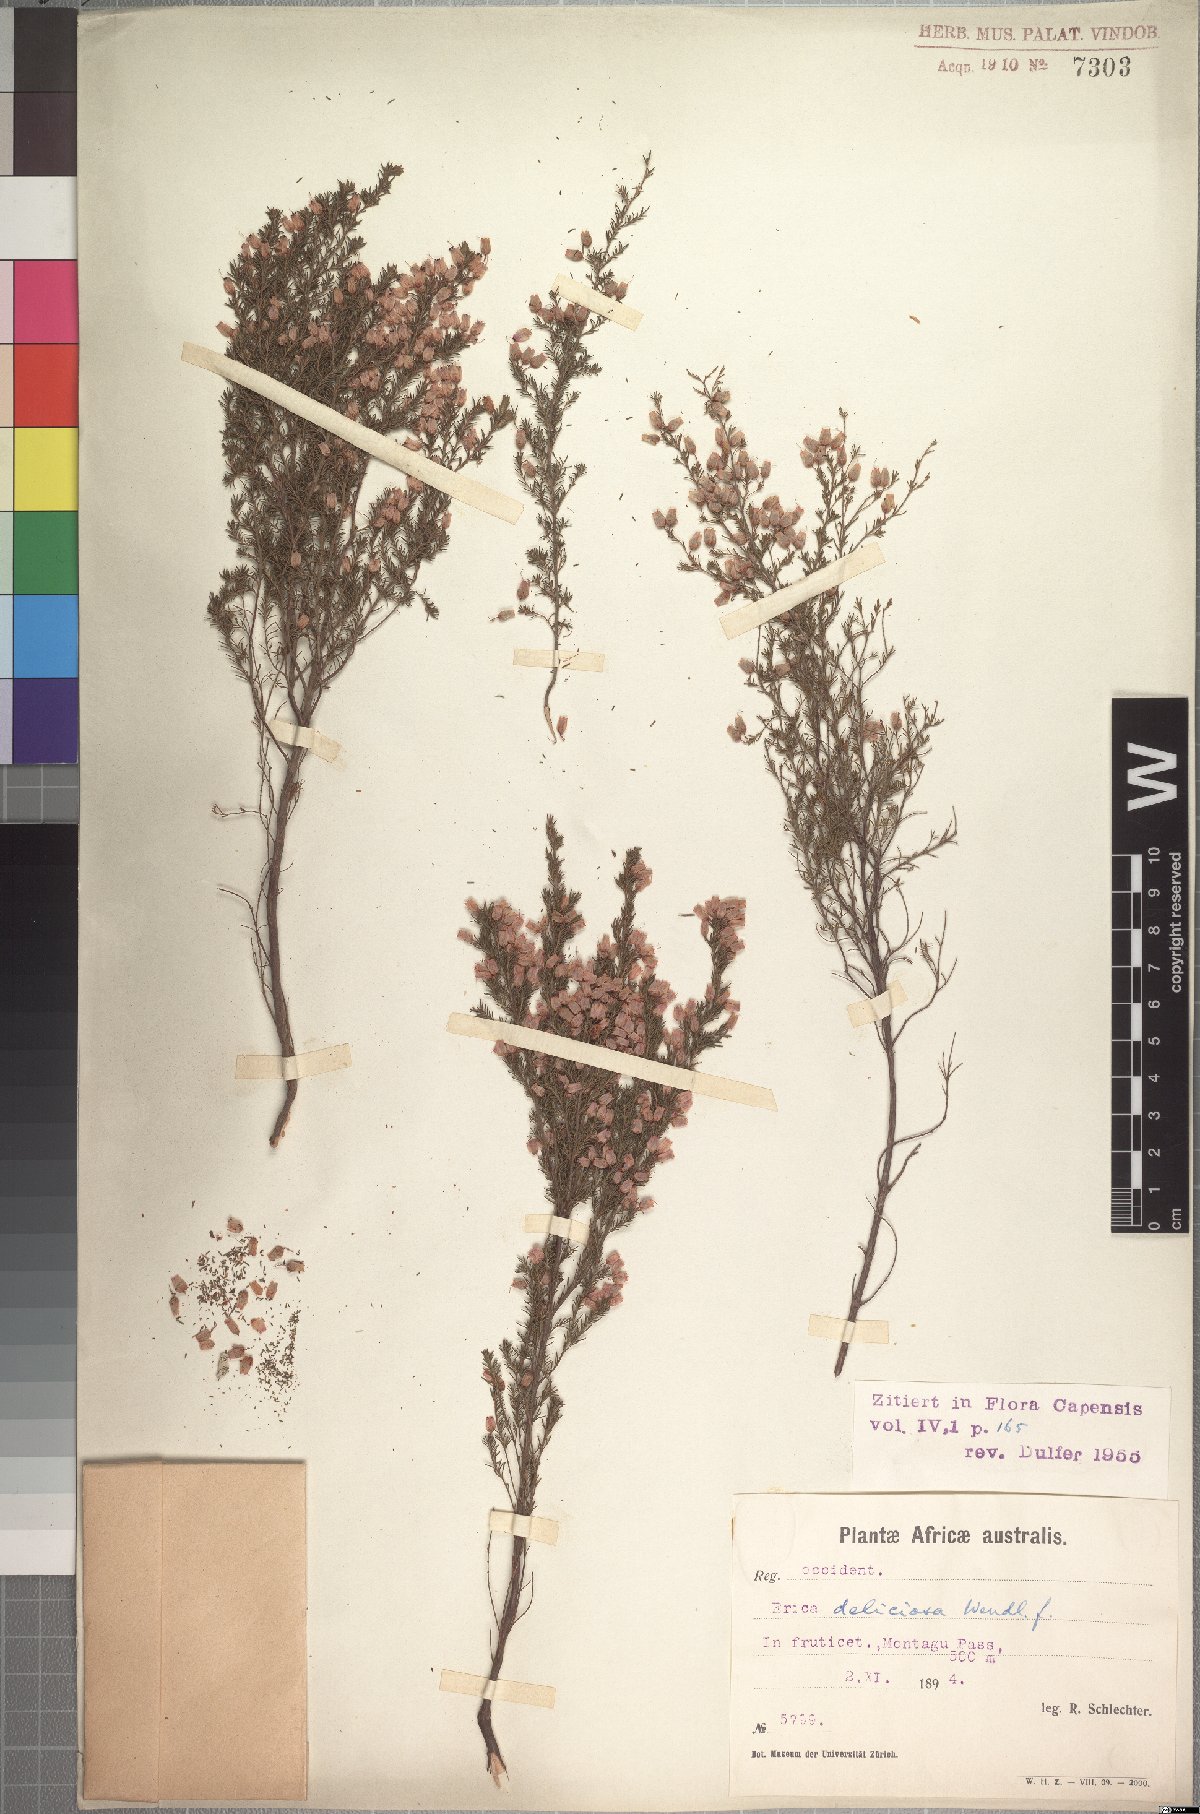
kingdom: Plantae
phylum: Tracheophyta
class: Magnoliopsida
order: Ericales
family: Ericaceae
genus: Erica
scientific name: Erica nutans
